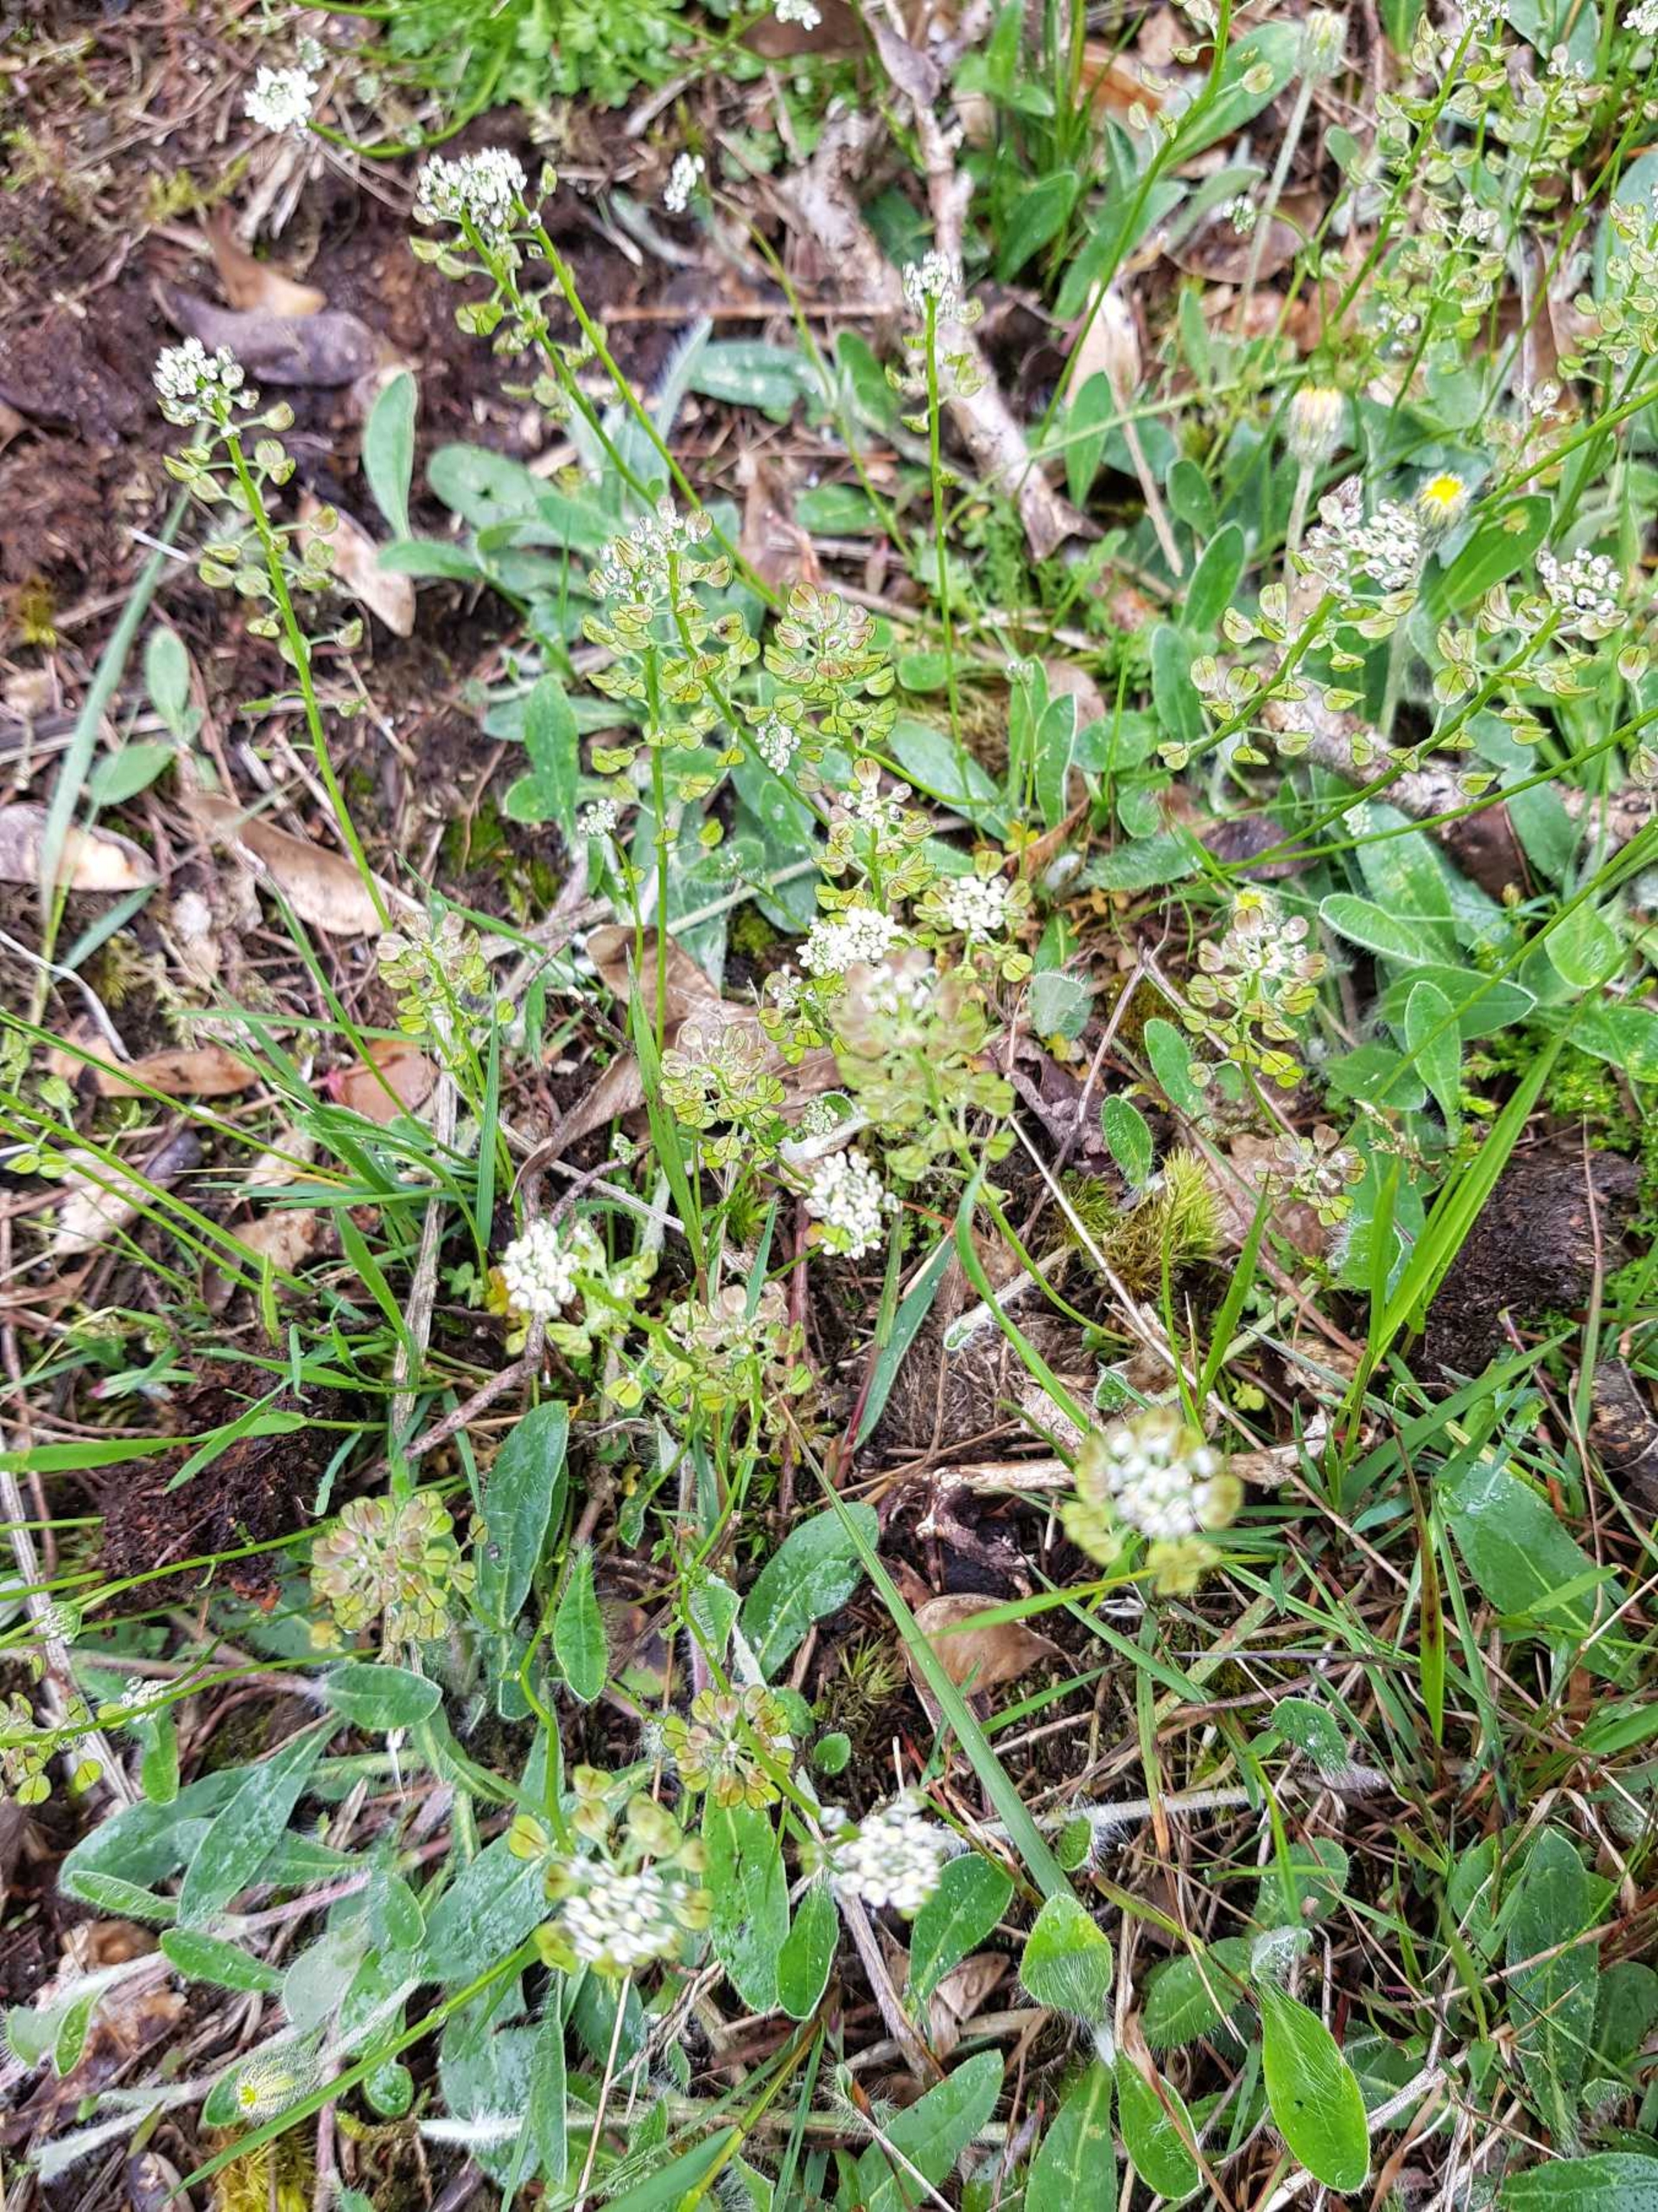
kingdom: Plantae
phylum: Tracheophyta
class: Magnoliopsida
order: Brassicales
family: Brassicaceae
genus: Teesdalia
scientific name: Teesdalia nudicaulis
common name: Flipkrave
